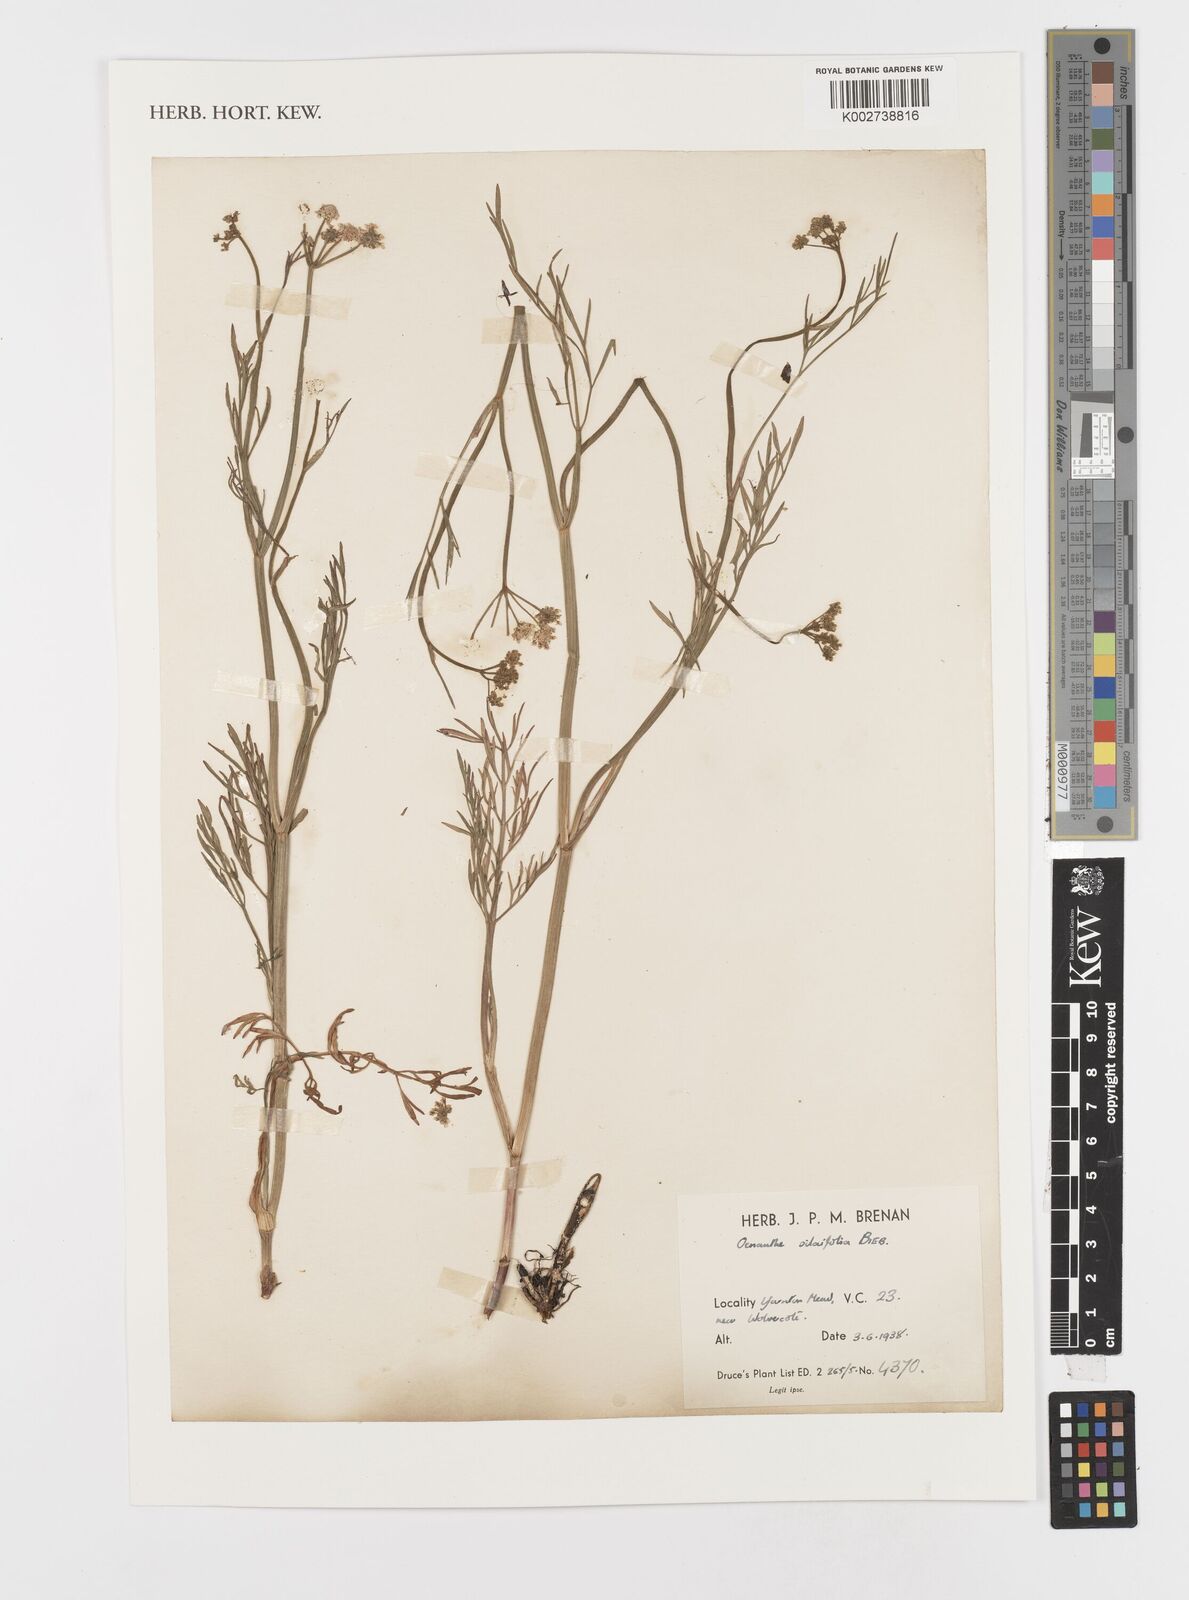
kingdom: Plantae
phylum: Tracheophyta
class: Magnoliopsida
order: Apiales
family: Apiaceae
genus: Oenanthe
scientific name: Oenanthe silaifolia
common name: Narrow-leaved water-dropwort
